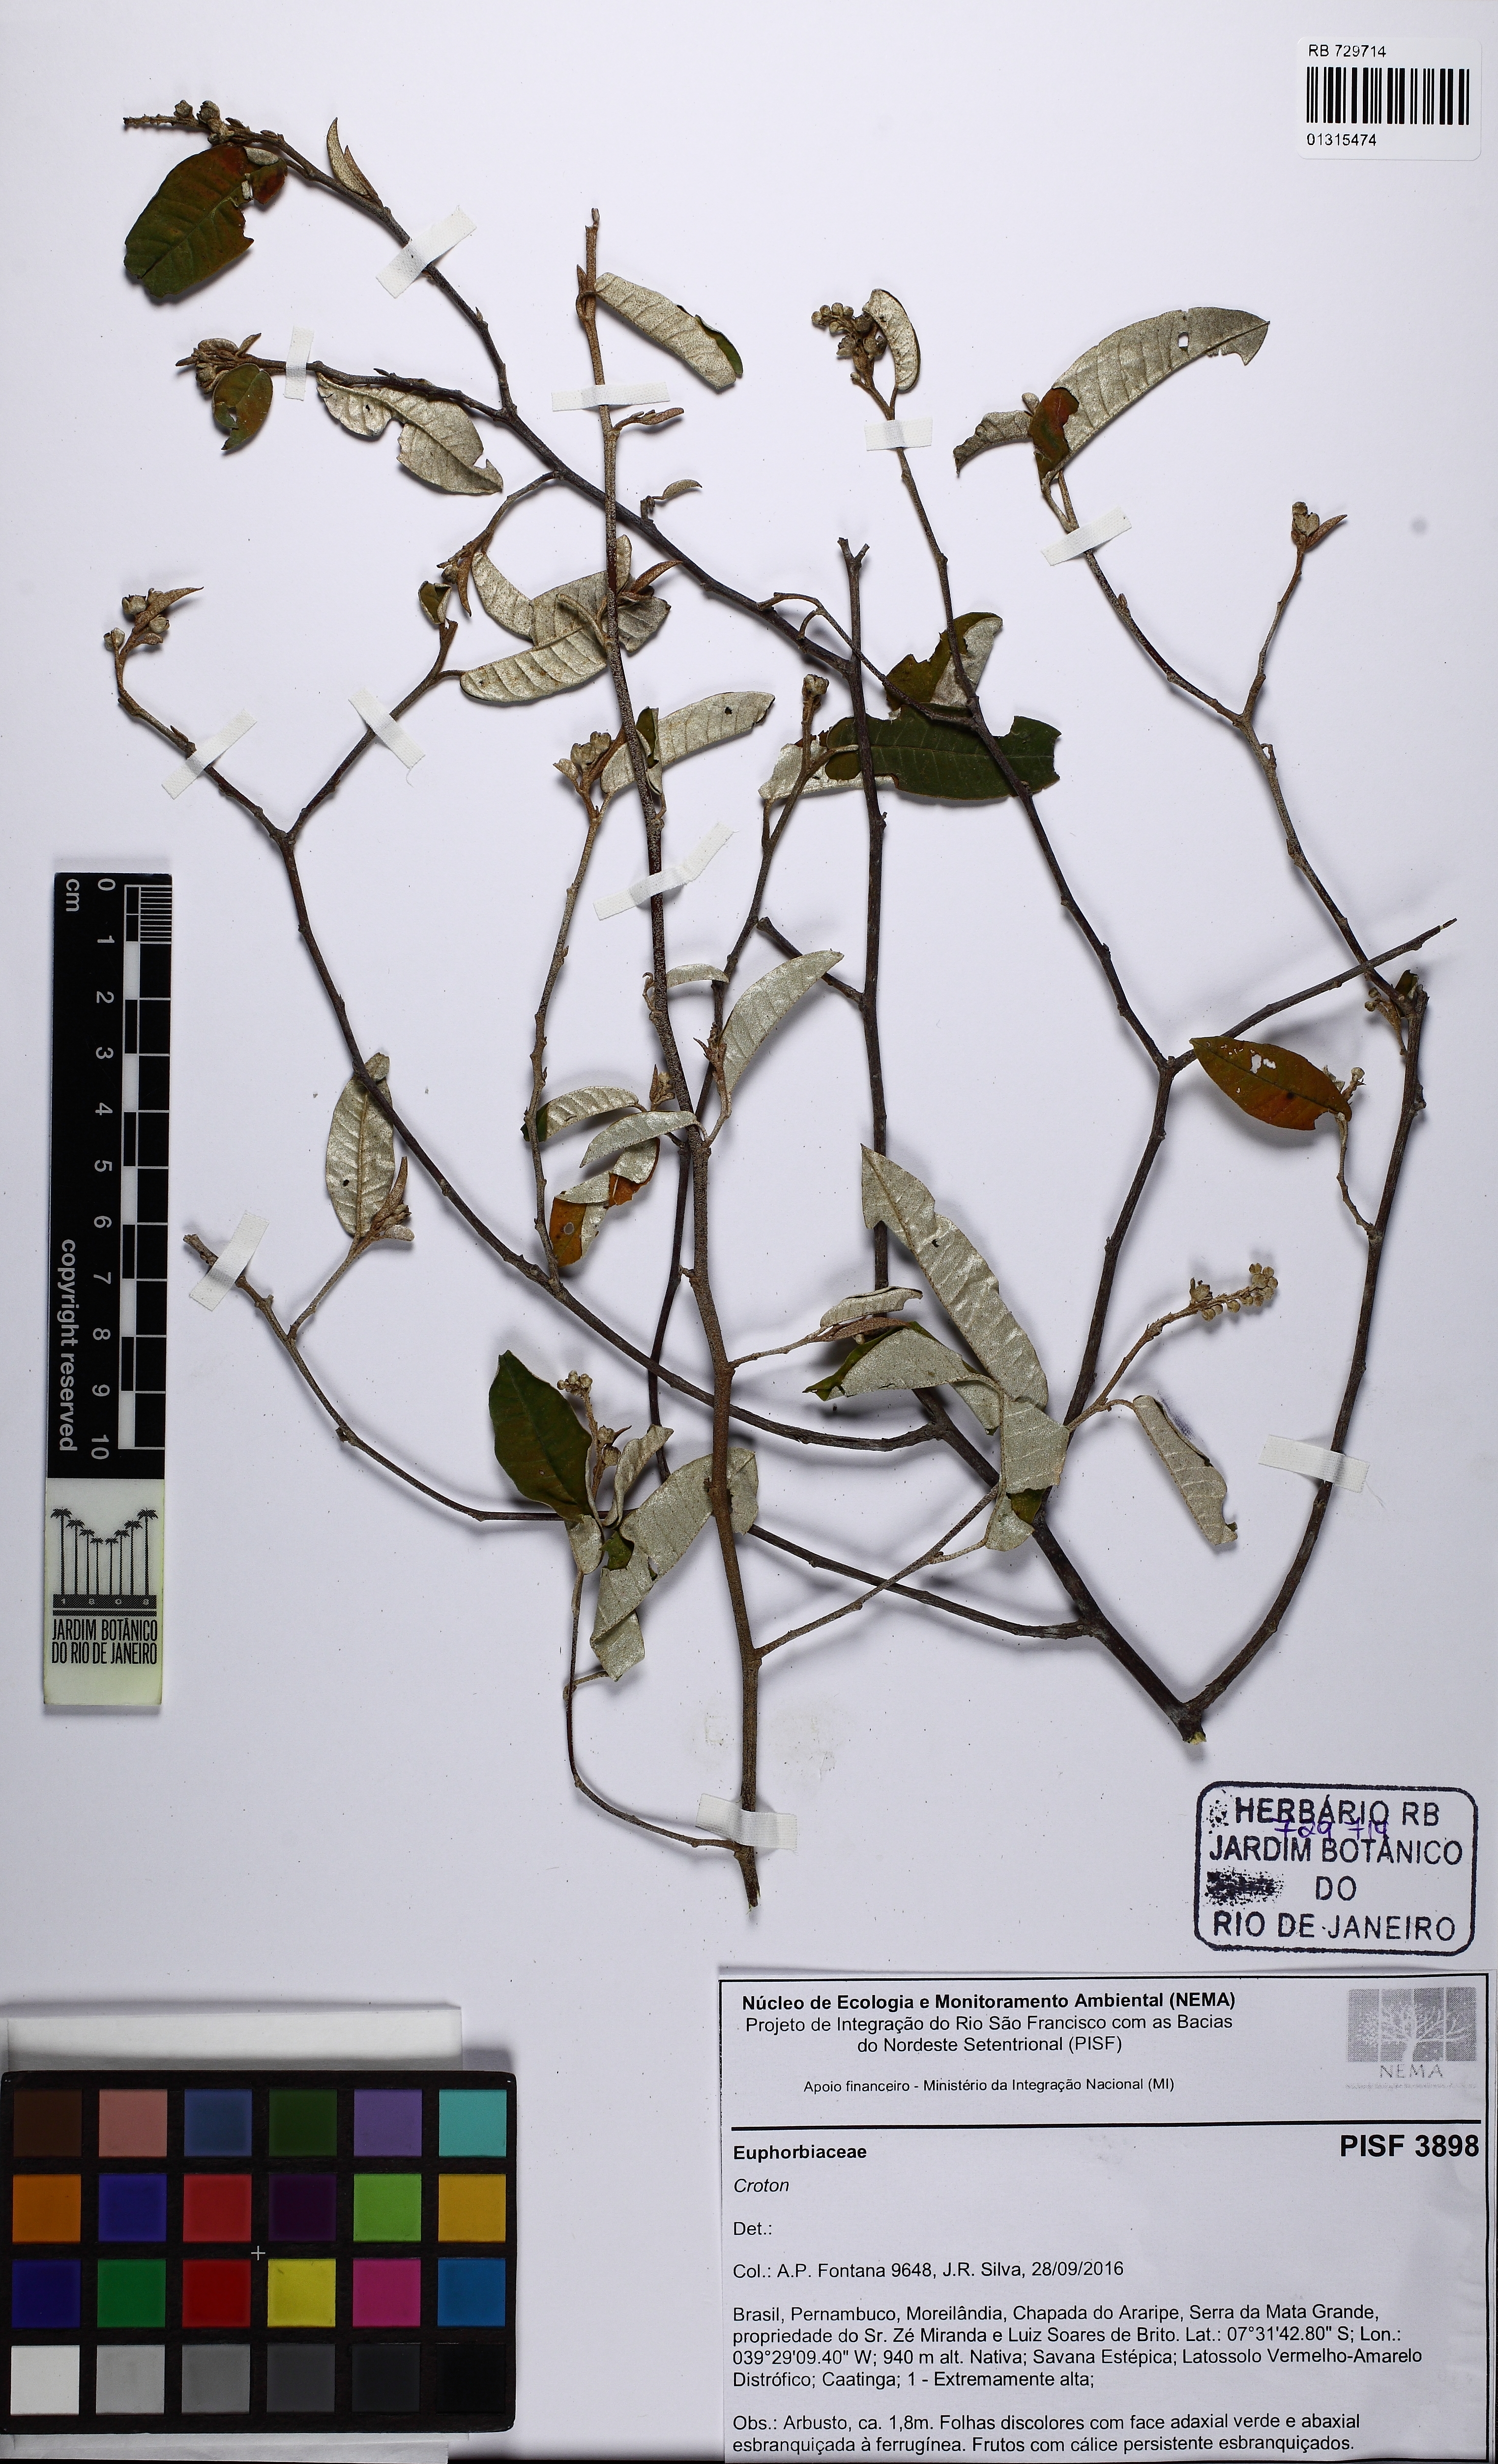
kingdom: Plantae
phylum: Tracheophyta
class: Magnoliopsida
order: Malpighiales
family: Euphorbiaceae
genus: Croton
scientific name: Croton tricolor
